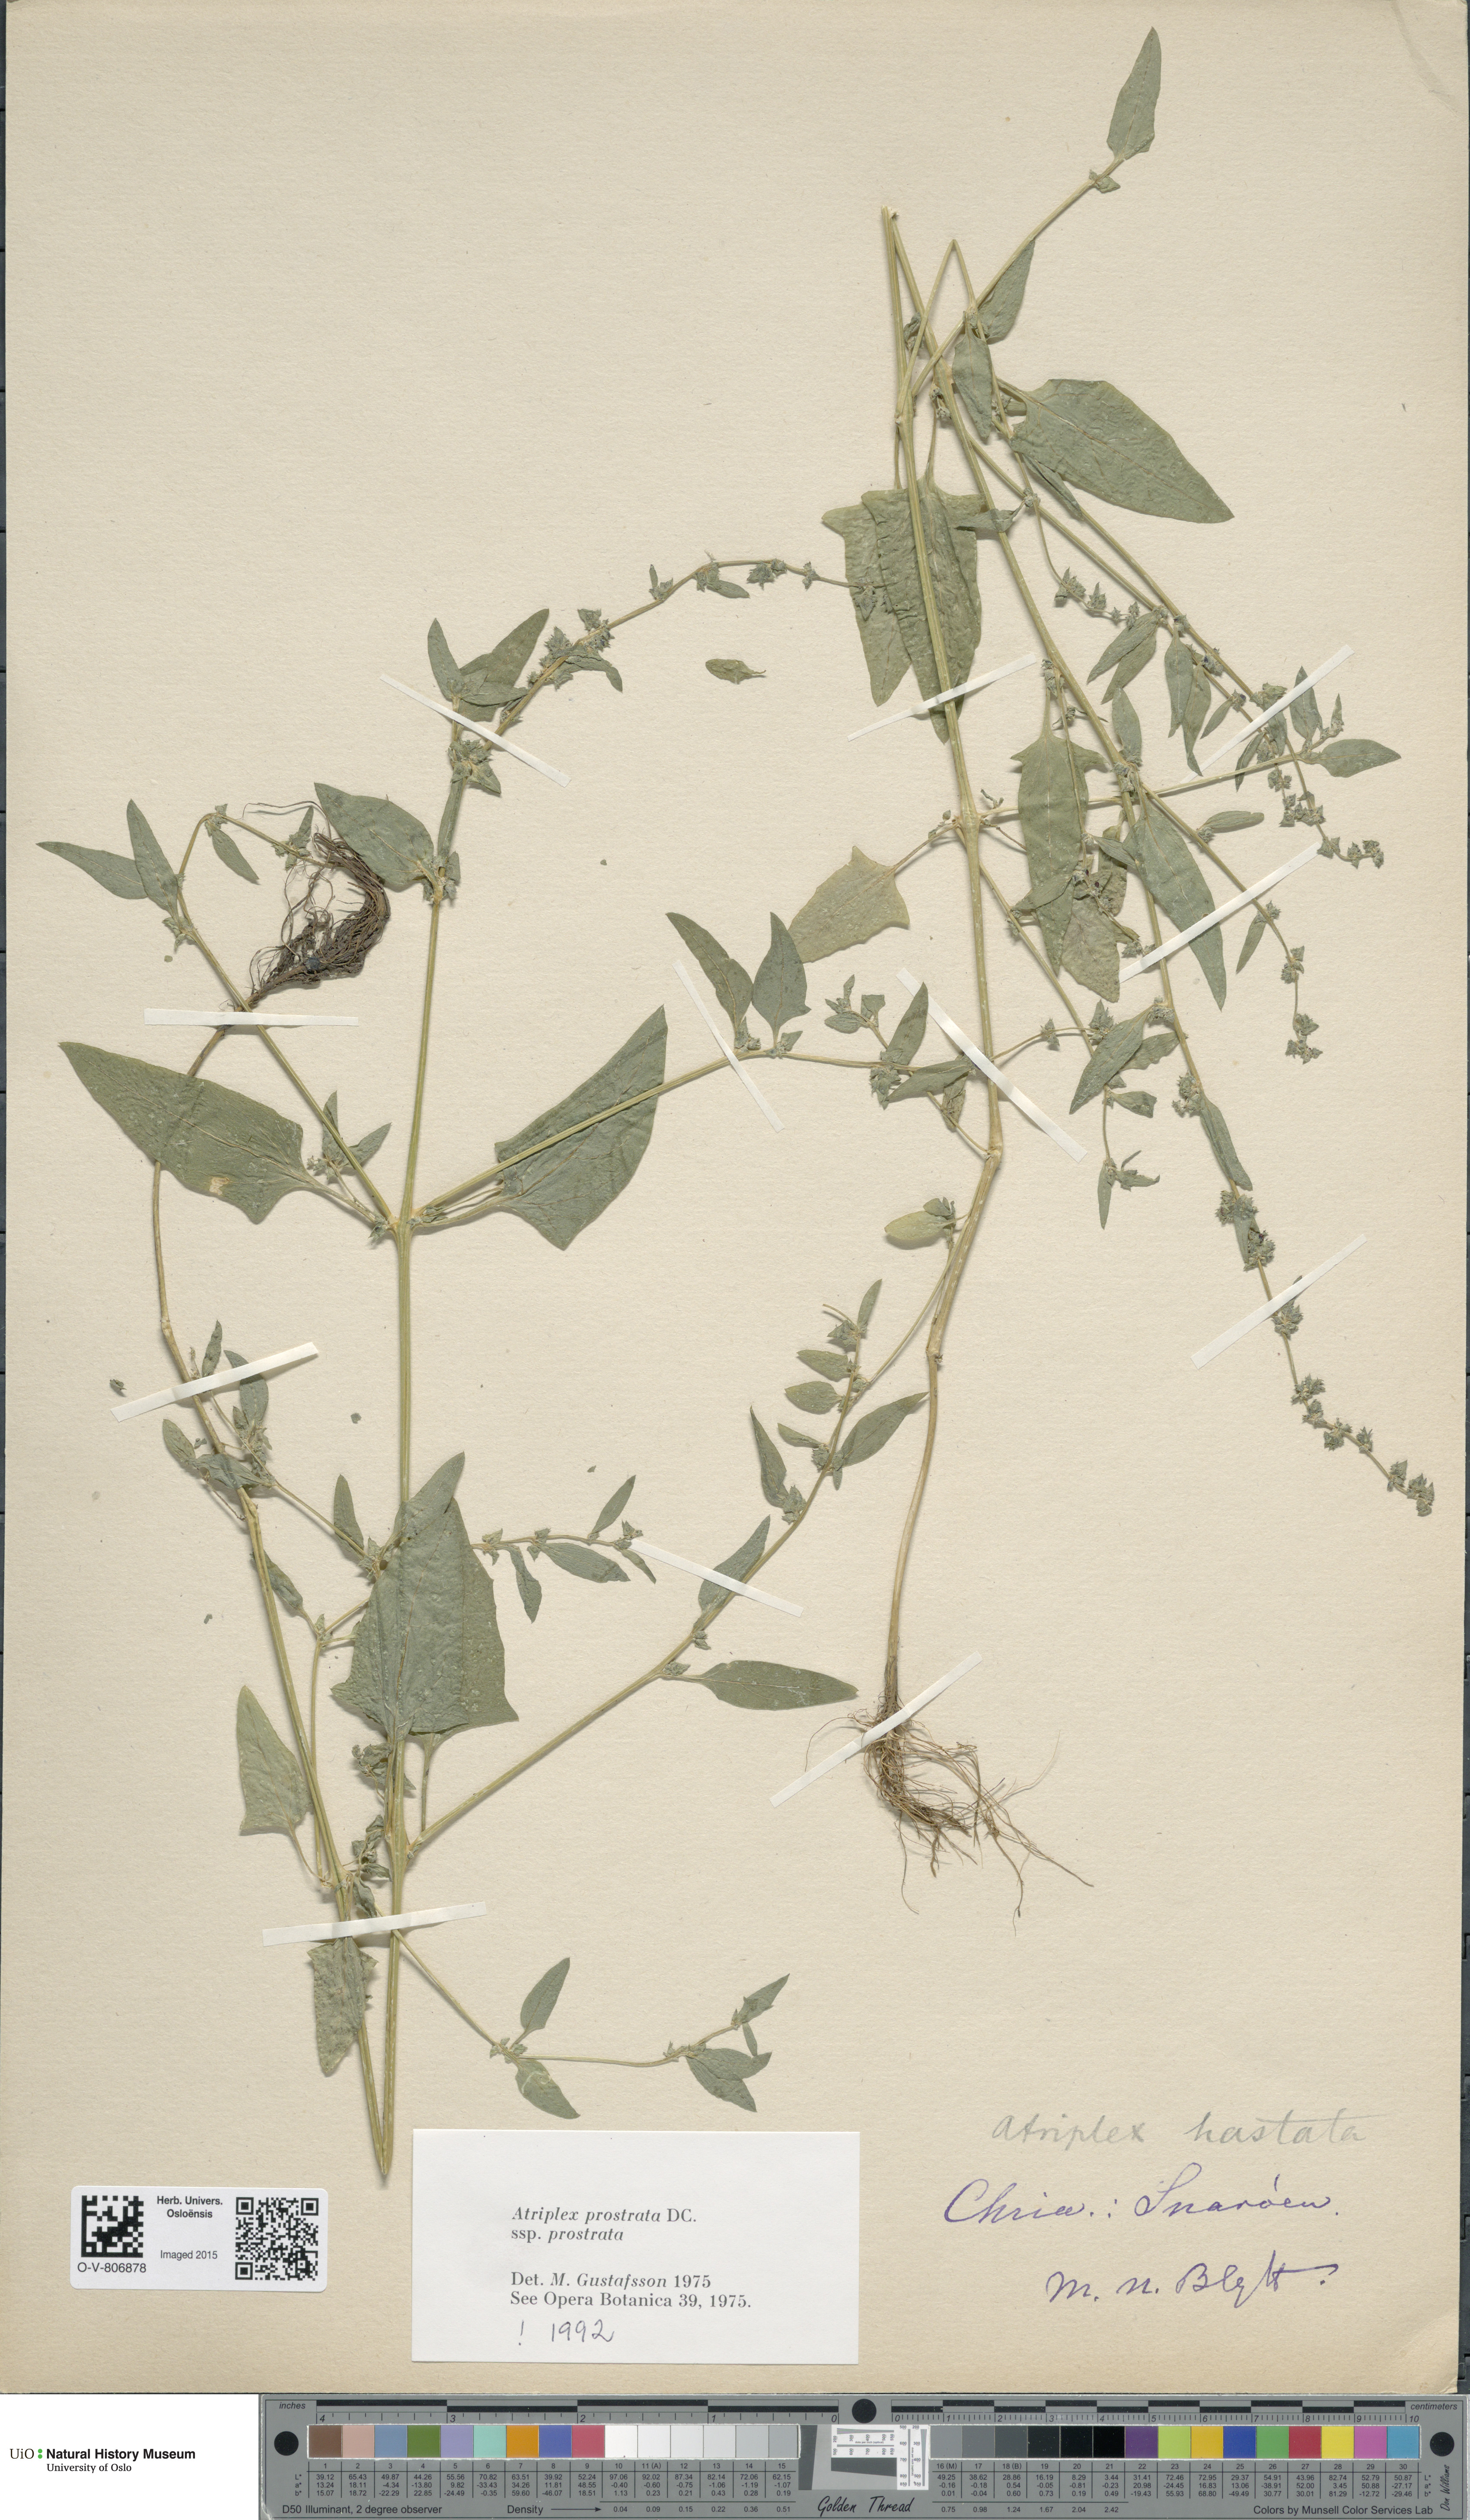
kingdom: Plantae
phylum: Tracheophyta
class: Magnoliopsida
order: Caryophyllales
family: Amaranthaceae
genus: Atriplex
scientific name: Atriplex prostrata
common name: Spear-leaved orache
